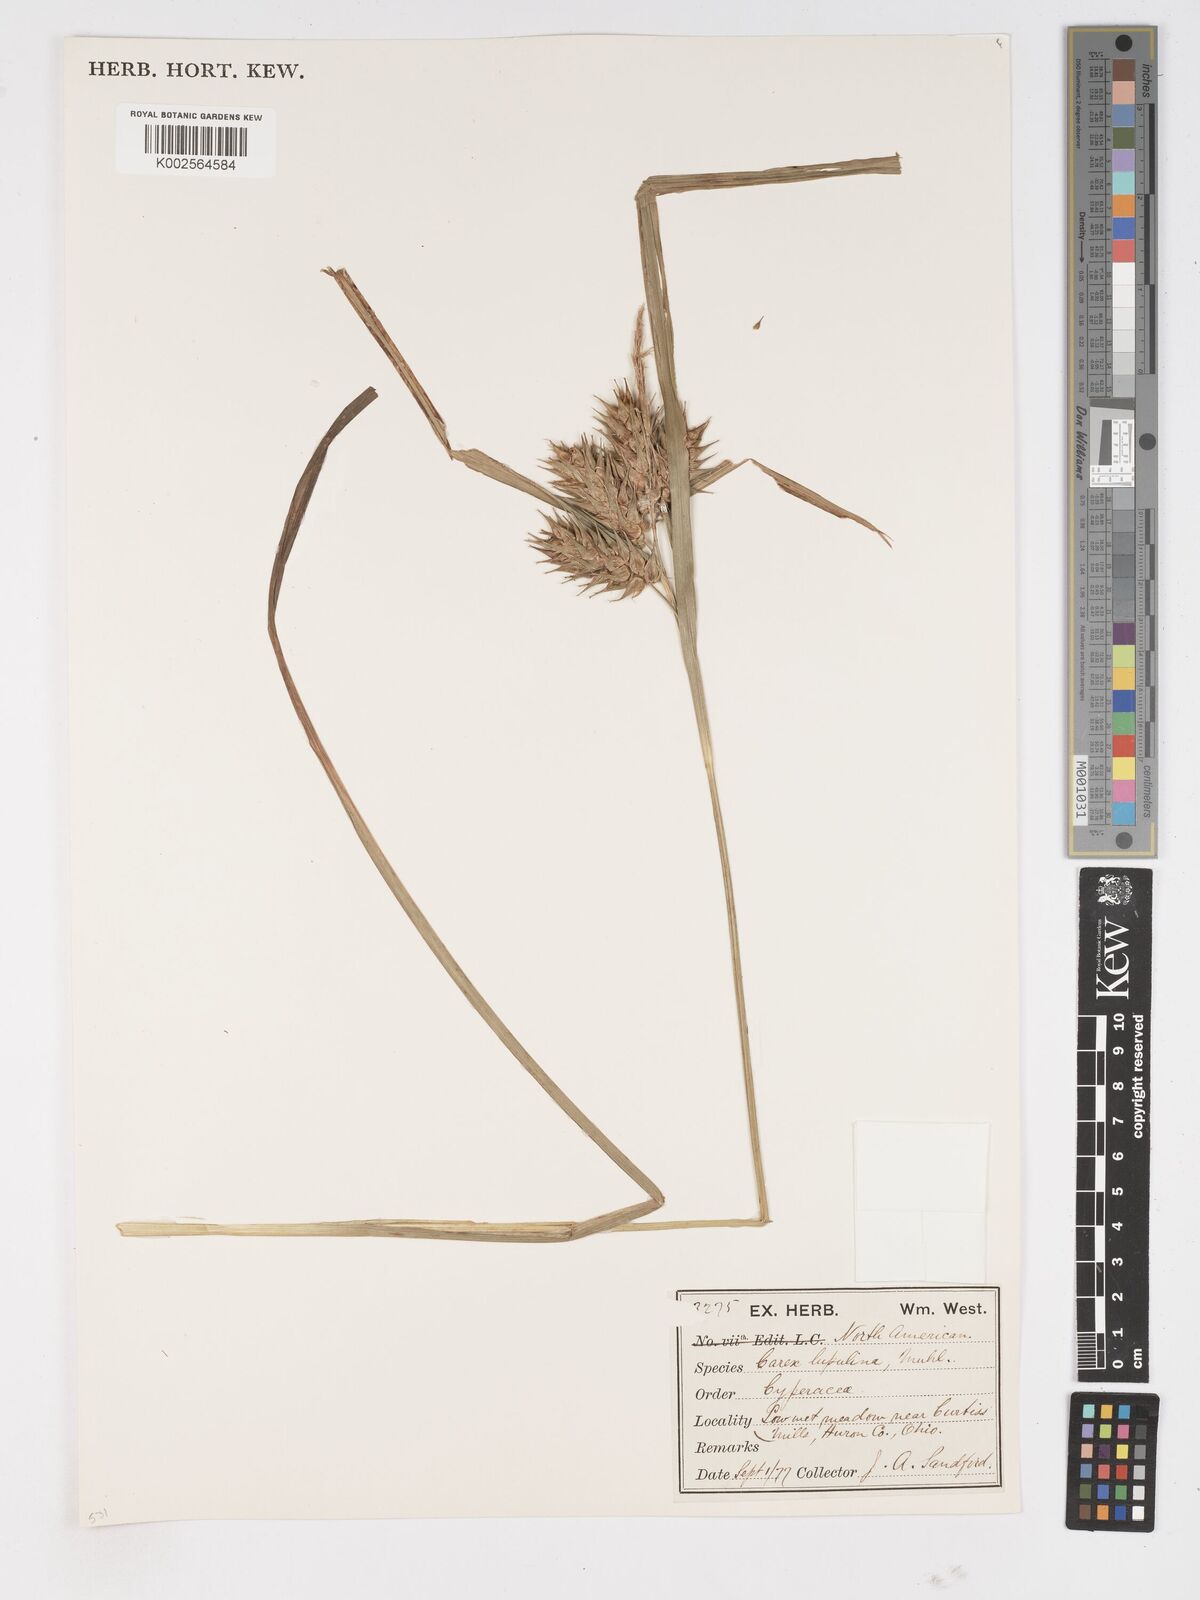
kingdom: Plantae
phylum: Tracheophyta
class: Liliopsida
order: Poales
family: Cyperaceae
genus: Carex
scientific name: Carex lupulina
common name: Hop sedge
